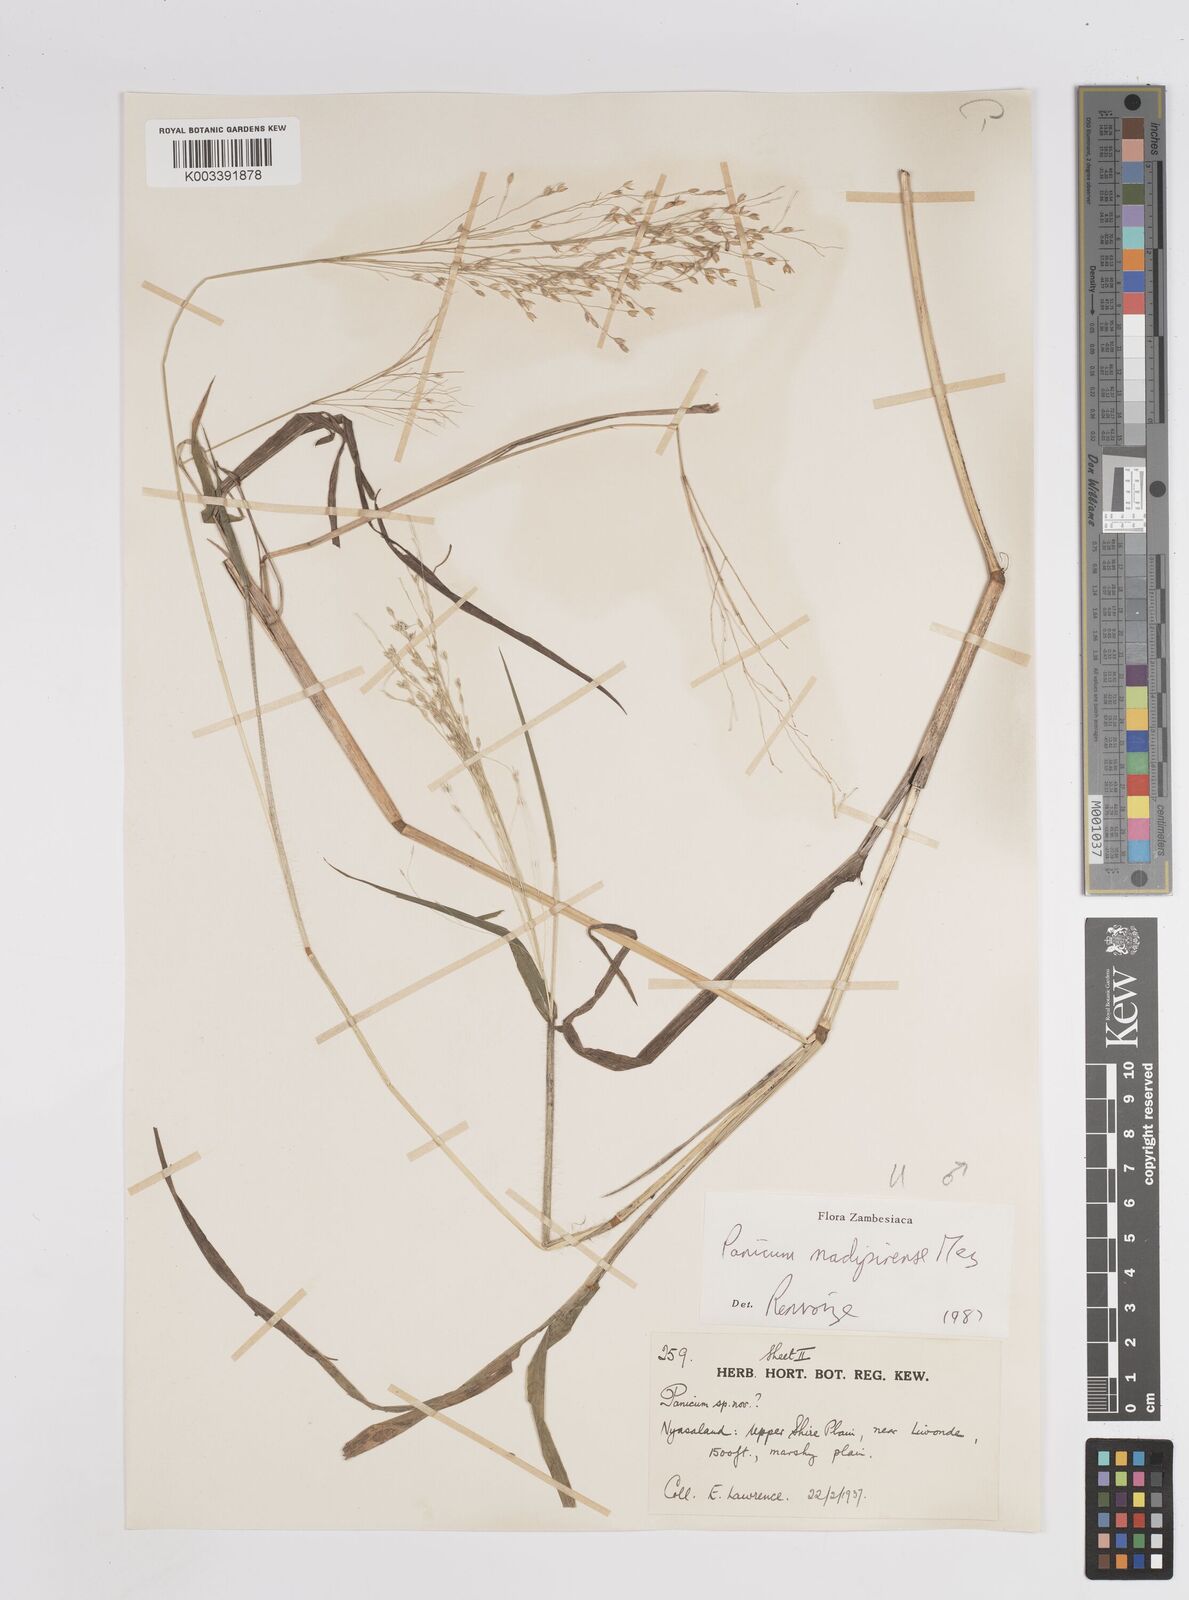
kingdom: Plantae
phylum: Tracheophyta
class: Liliopsida
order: Poales
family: Poaceae
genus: Panicum
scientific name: Panicum madipirense
